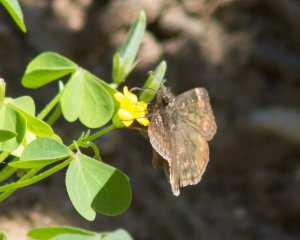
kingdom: Animalia
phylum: Arthropoda
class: Insecta
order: Lepidoptera
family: Hesperiidae
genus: Gesta
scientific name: Gesta
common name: Horace's Duskywing
